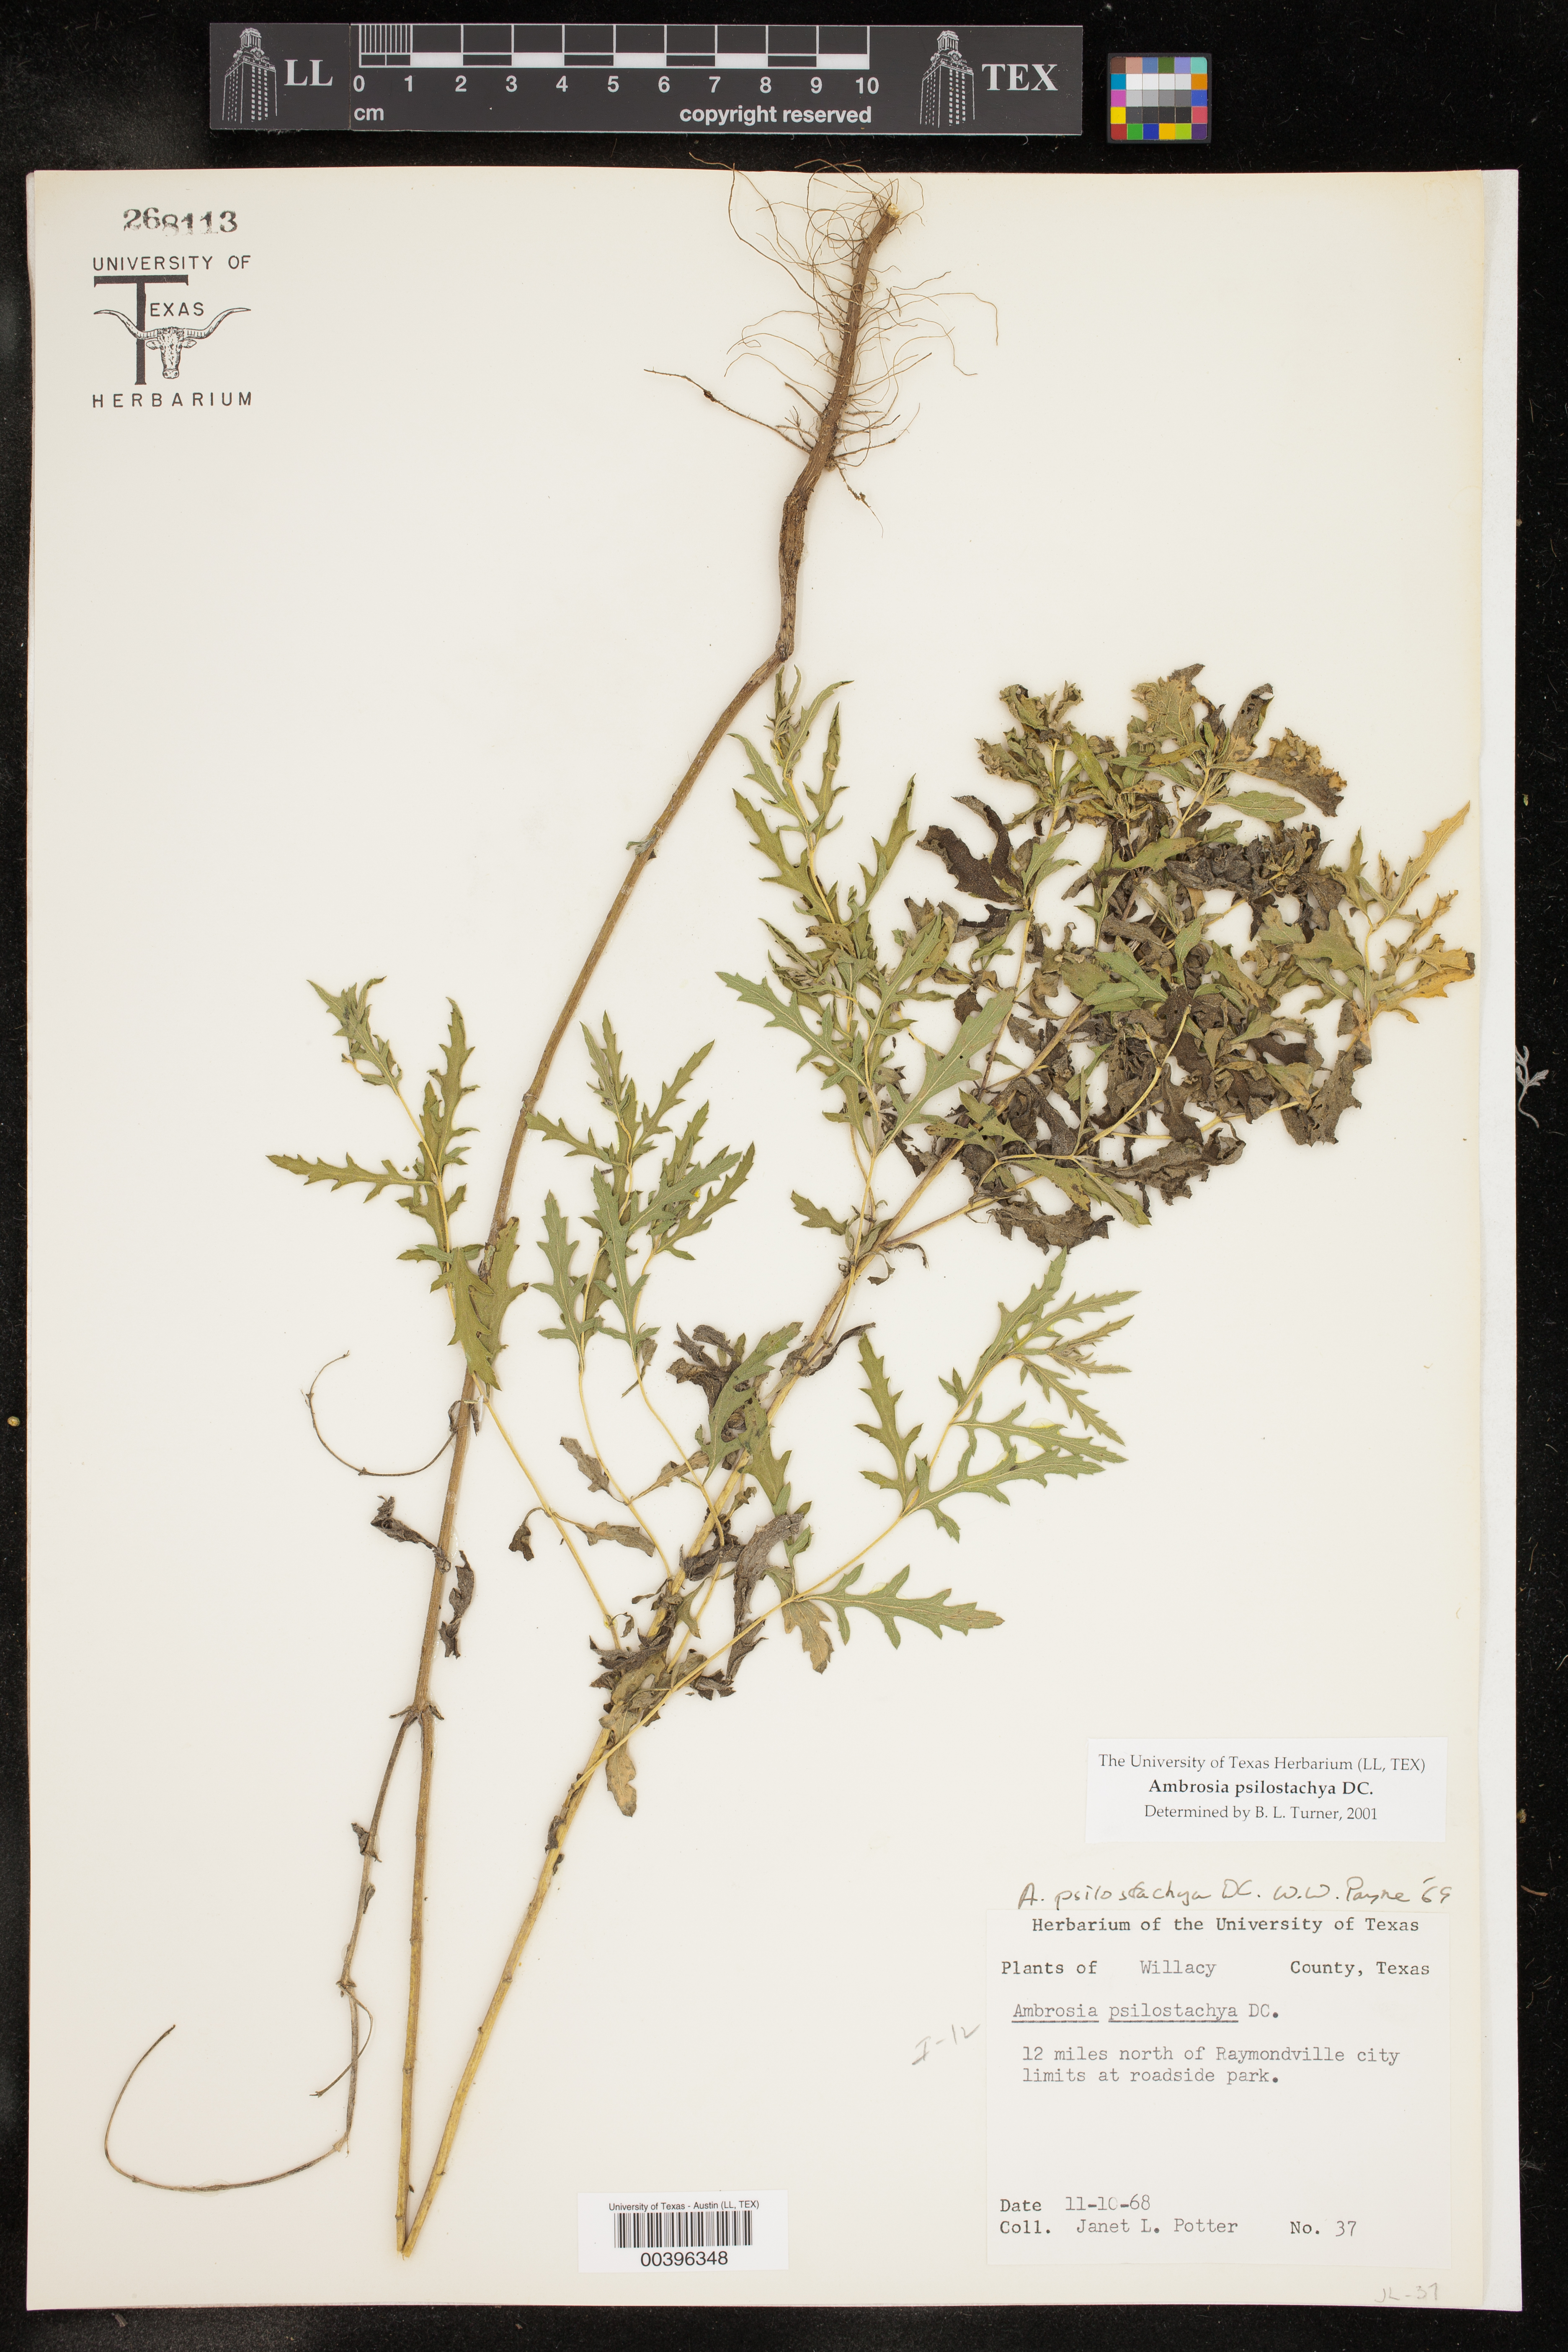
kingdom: Plantae
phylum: Tracheophyta
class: Magnoliopsida
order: Asterales
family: Asteraceae
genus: Ambrosia
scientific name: Ambrosia psilostachya
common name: Perennial ragweed
